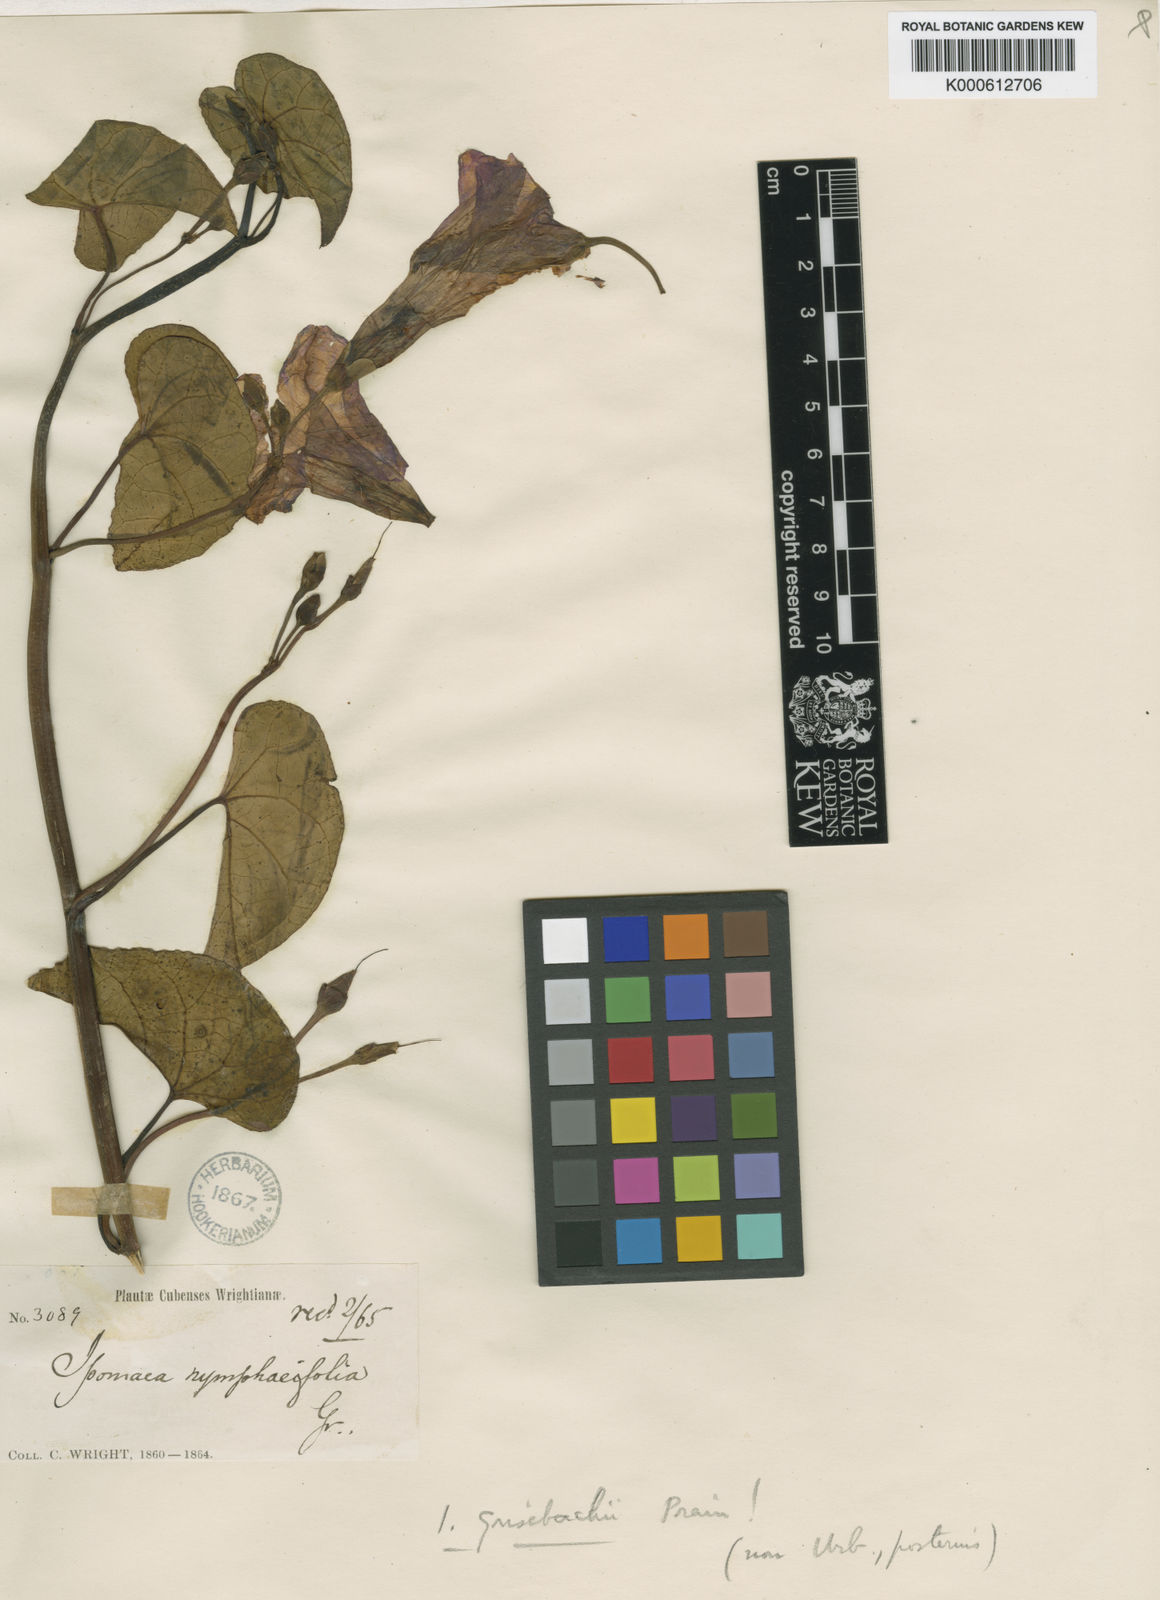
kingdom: Plantae
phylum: Tracheophyta
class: Magnoliopsida
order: Solanales
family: Convolvulaceae
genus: Ipomoea
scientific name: Ipomoea asarifolia
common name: Ginger-leaf morning-glory
